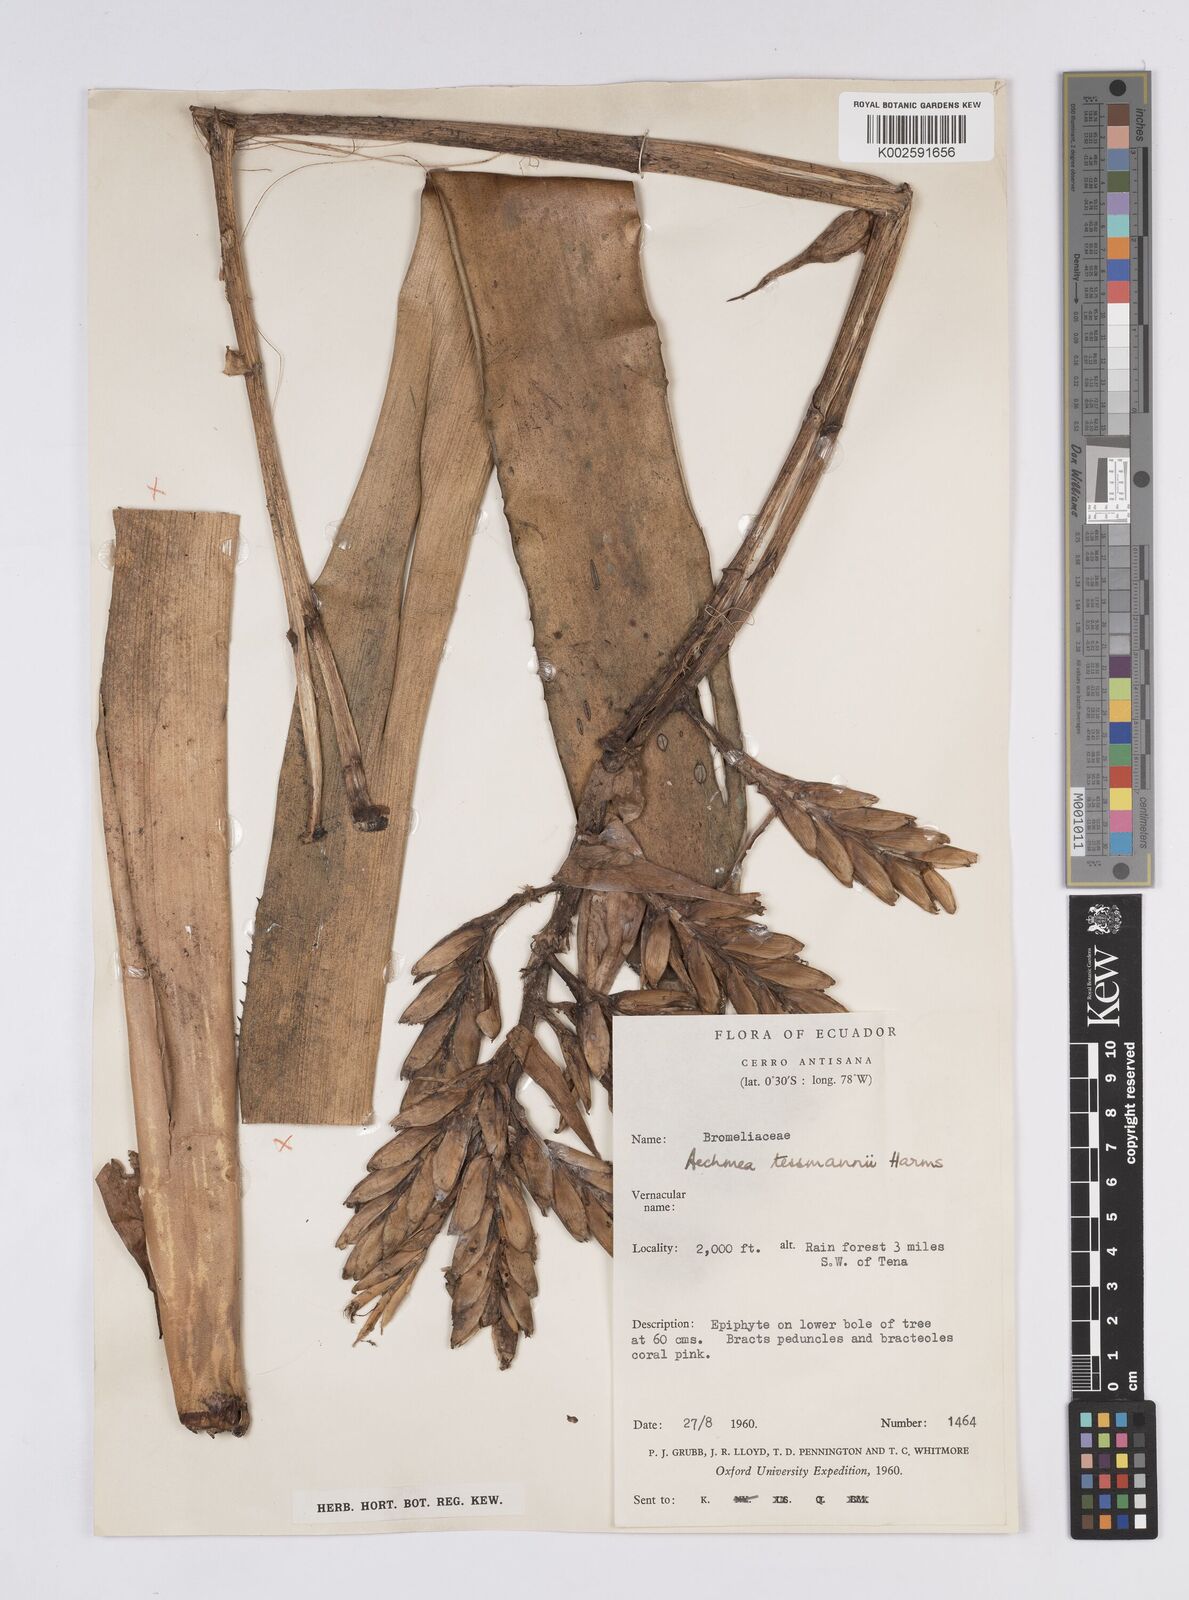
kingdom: Plantae
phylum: Tracheophyta
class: Liliopsida
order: Poales
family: Bromeliaceae
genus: Aechmea
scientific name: Aechmea tessmannii
